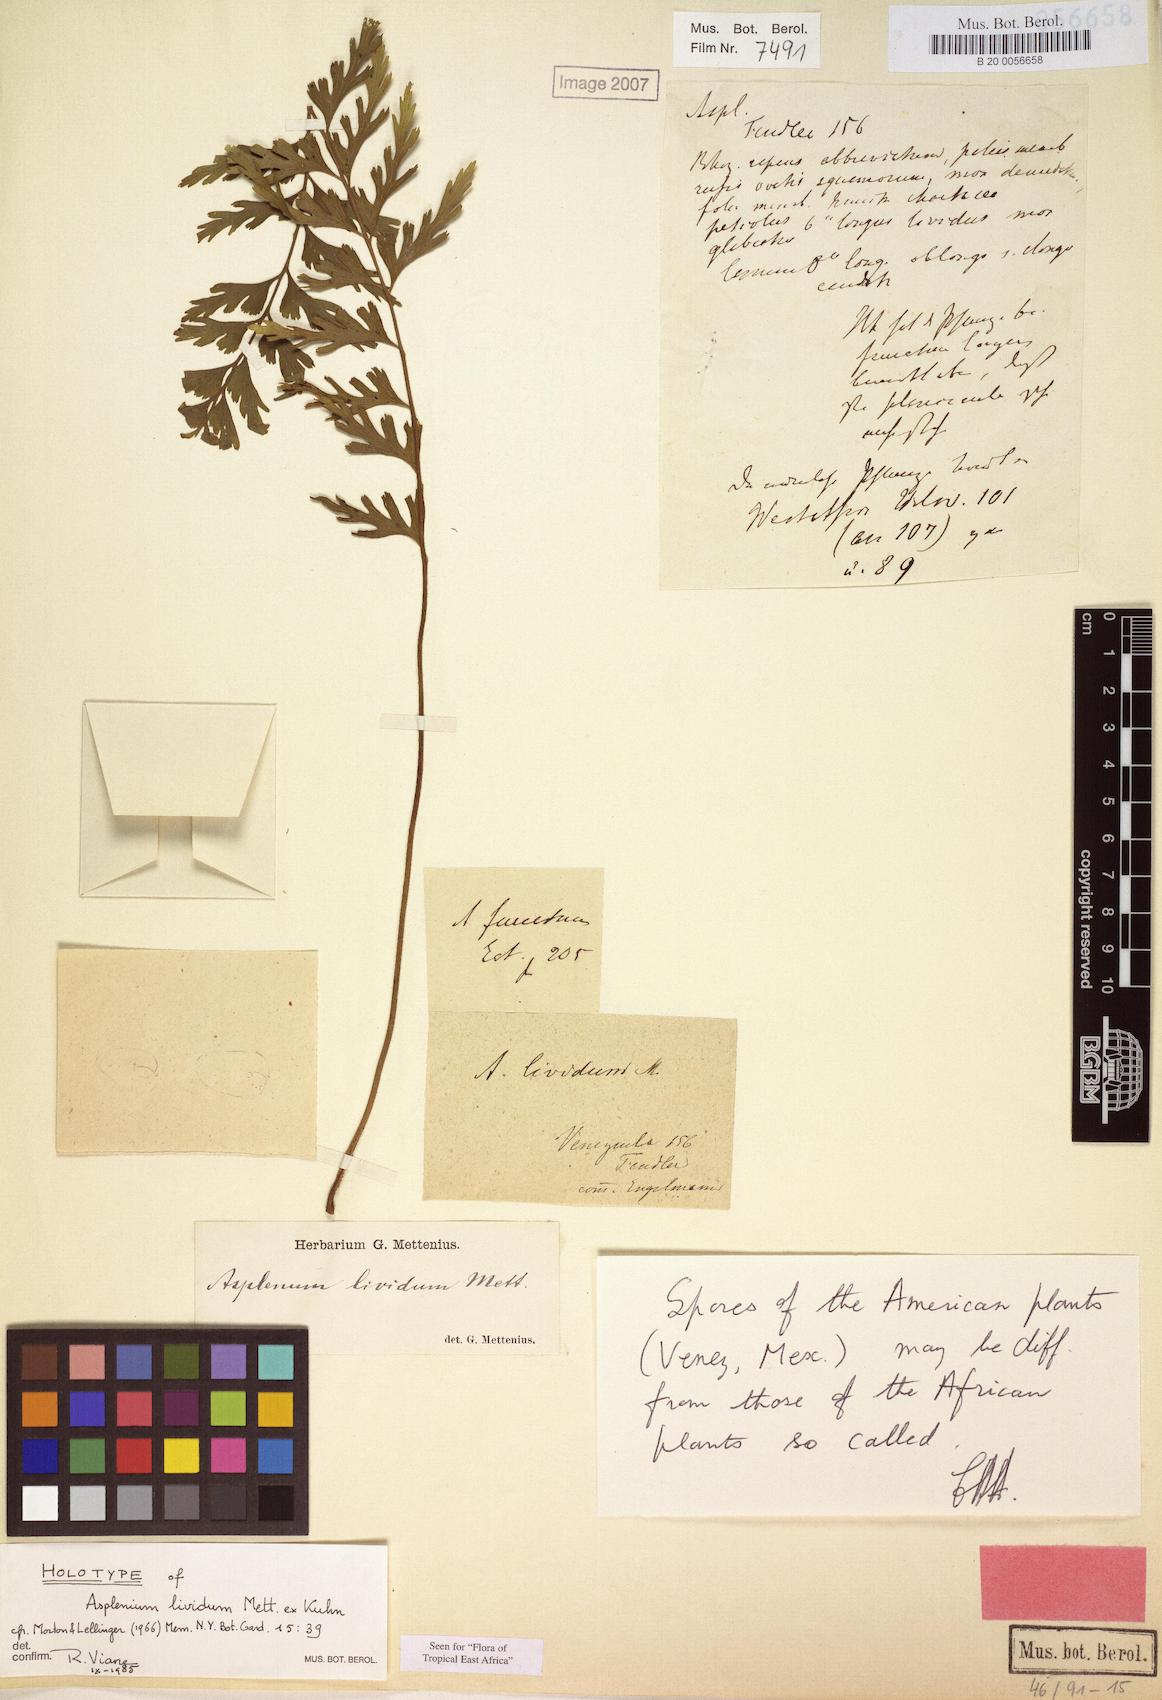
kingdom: Plantae
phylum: Tracheophyta
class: Polypodiopsida
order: Polypodiales
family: Aspleniaceae
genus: Asplenium
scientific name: Asplenium lividum
